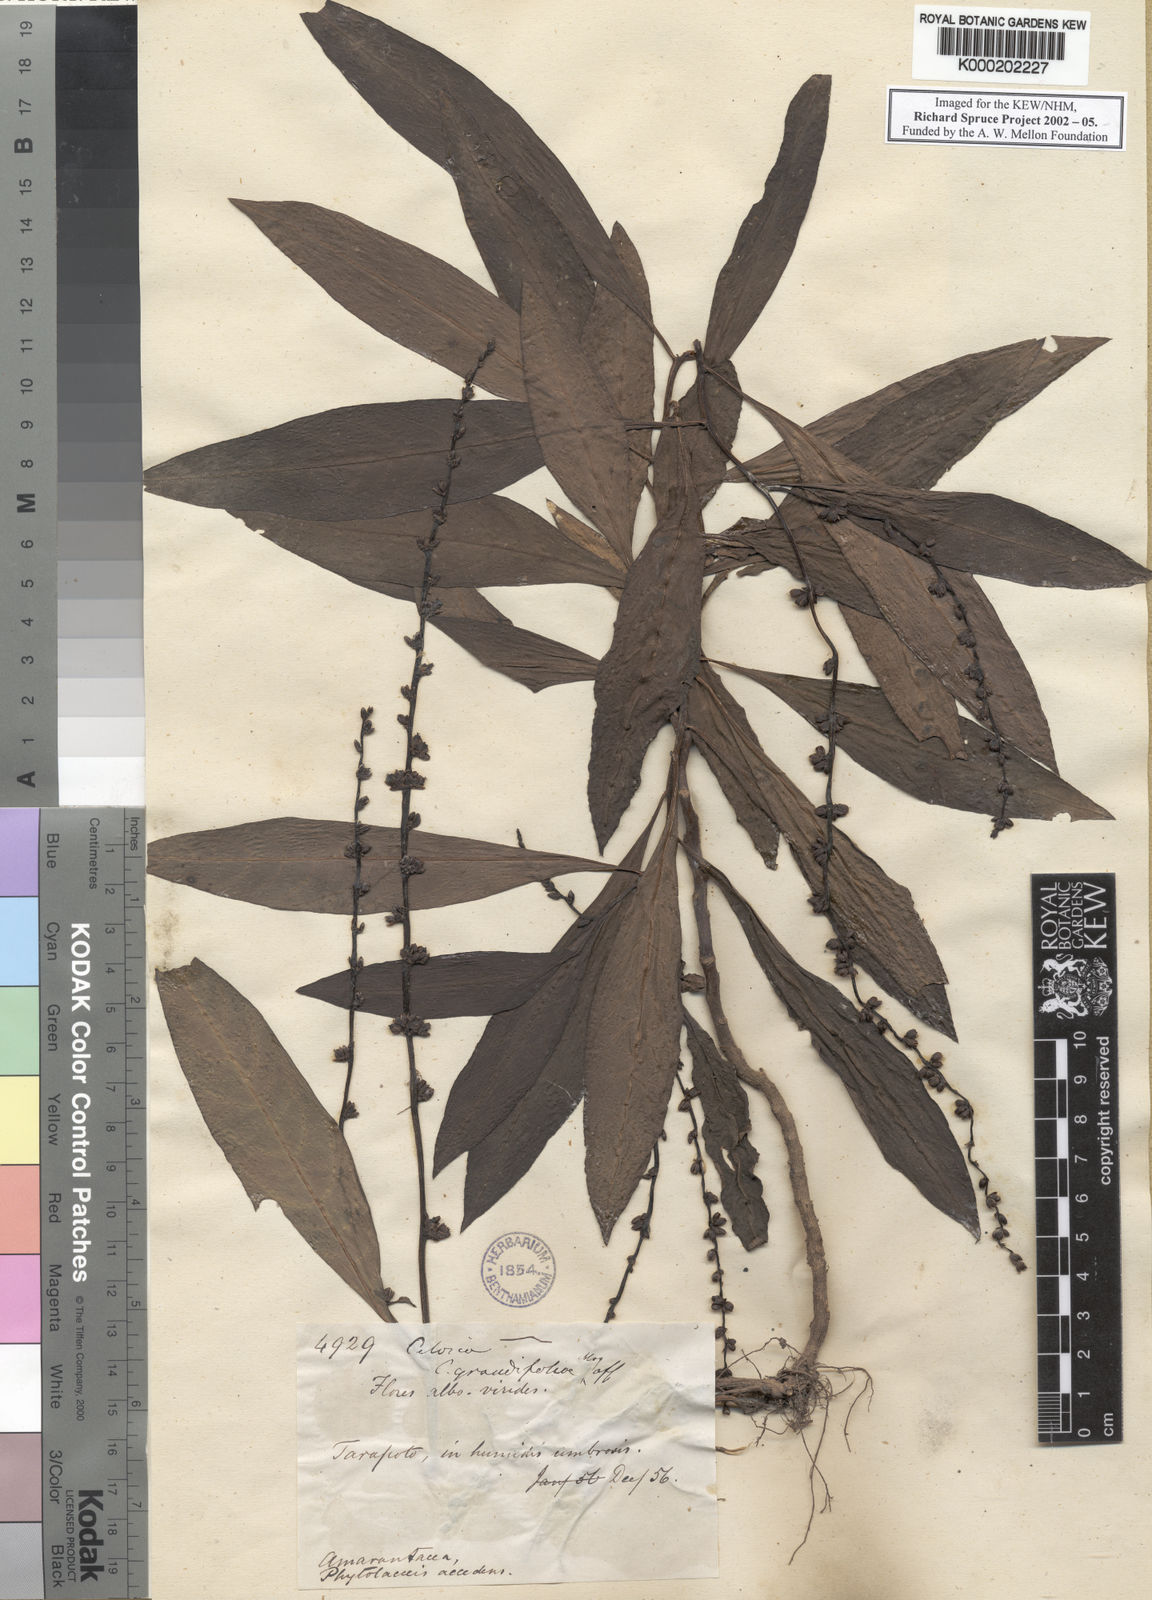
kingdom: Plantae
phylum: Tracheophyta
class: Magnoliopsida
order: Caryophyllales
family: Amaranthaceae
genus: Celosia
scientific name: Celosia grandifolia
